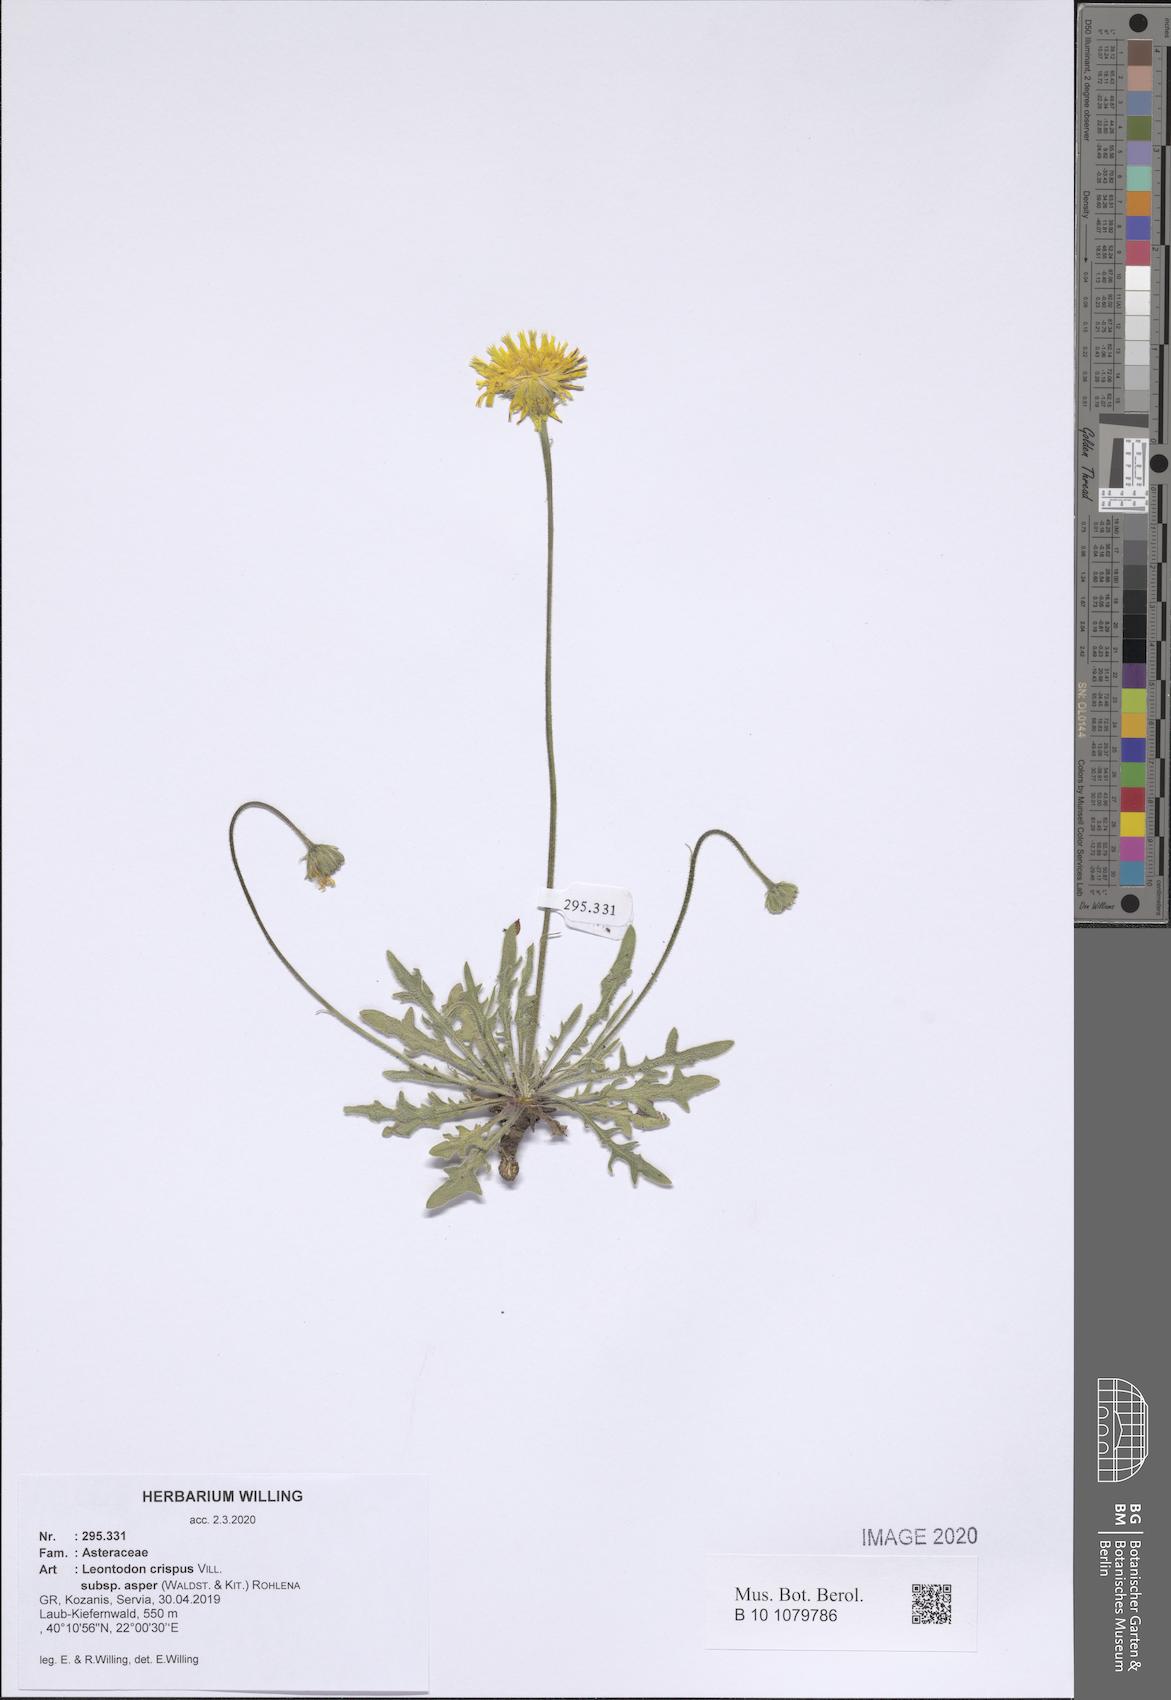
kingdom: Plantae
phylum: Tracheophyta
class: Magnoliopsida
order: Asterales
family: Asteraceae
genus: Leontodon
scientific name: Leontodon biscutellifolius
